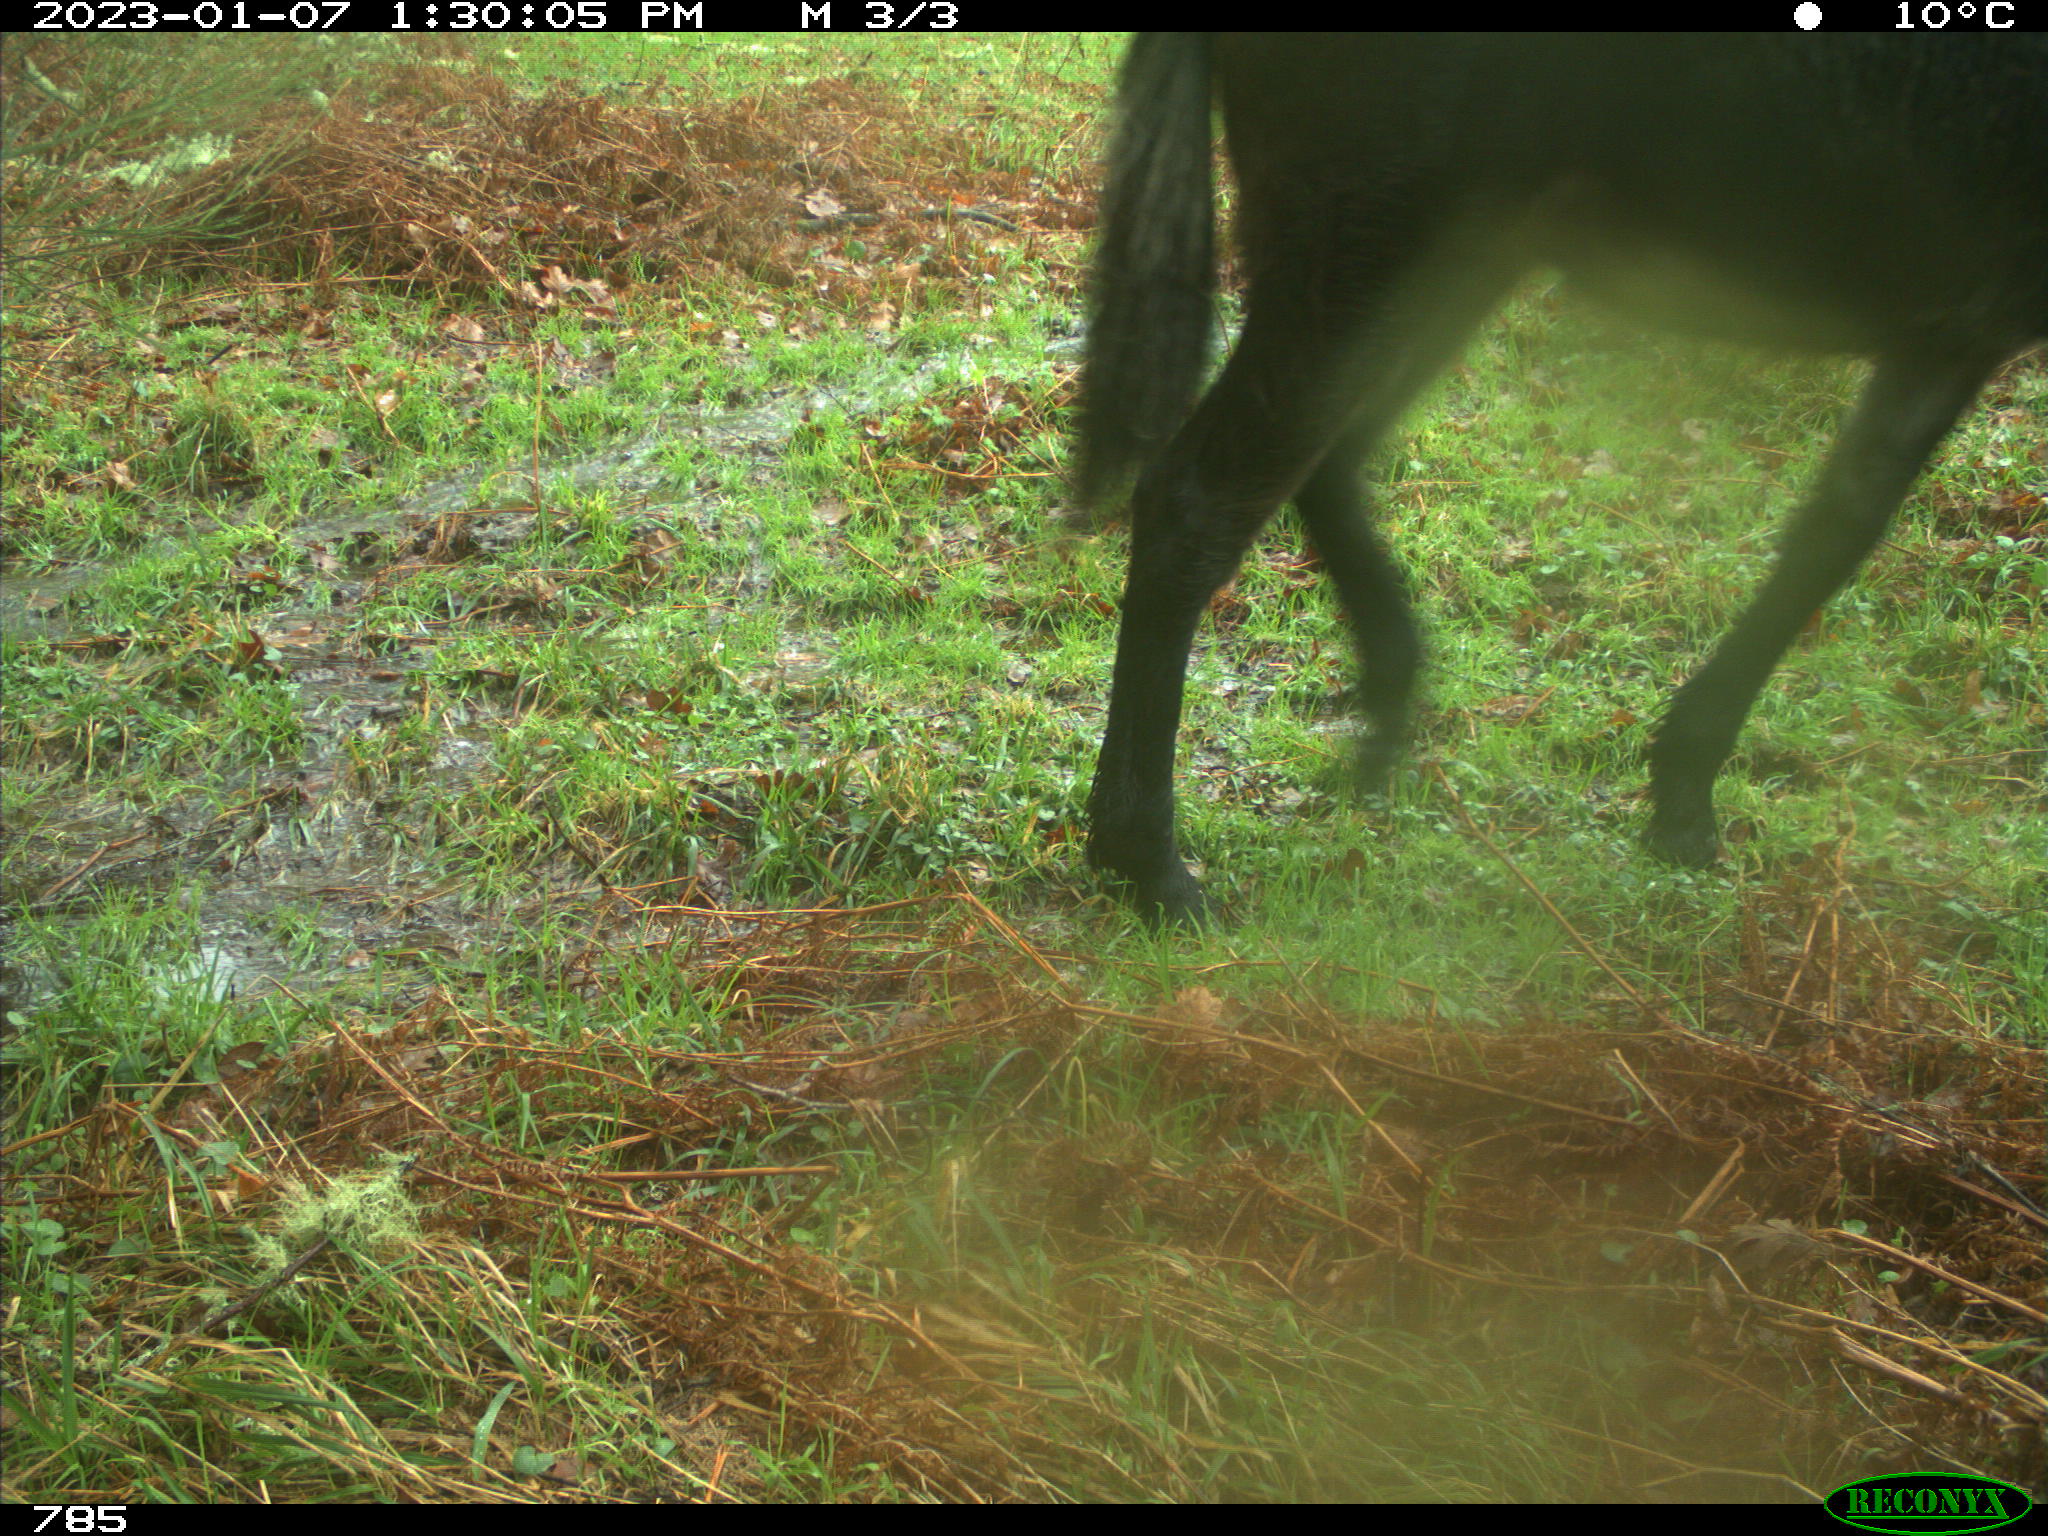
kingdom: Animalia
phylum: Chordata
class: Mammalia
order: Perissodactyla
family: Equidae
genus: Equus
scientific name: Equus caballus
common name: Horse
